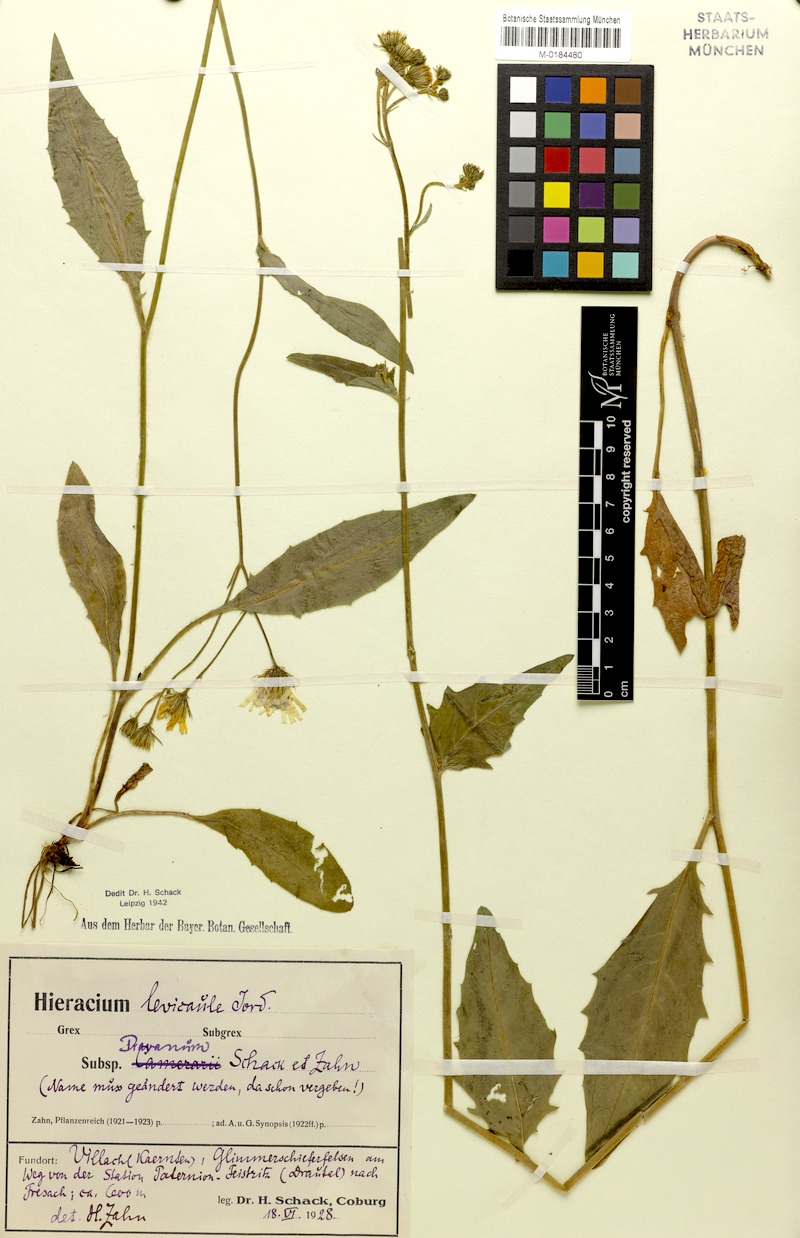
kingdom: Plantae
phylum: Tracheophyta
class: Magnoliopsida
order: Asterales
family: Asteraceae
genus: Hieracium
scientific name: Hieracium levicaule
